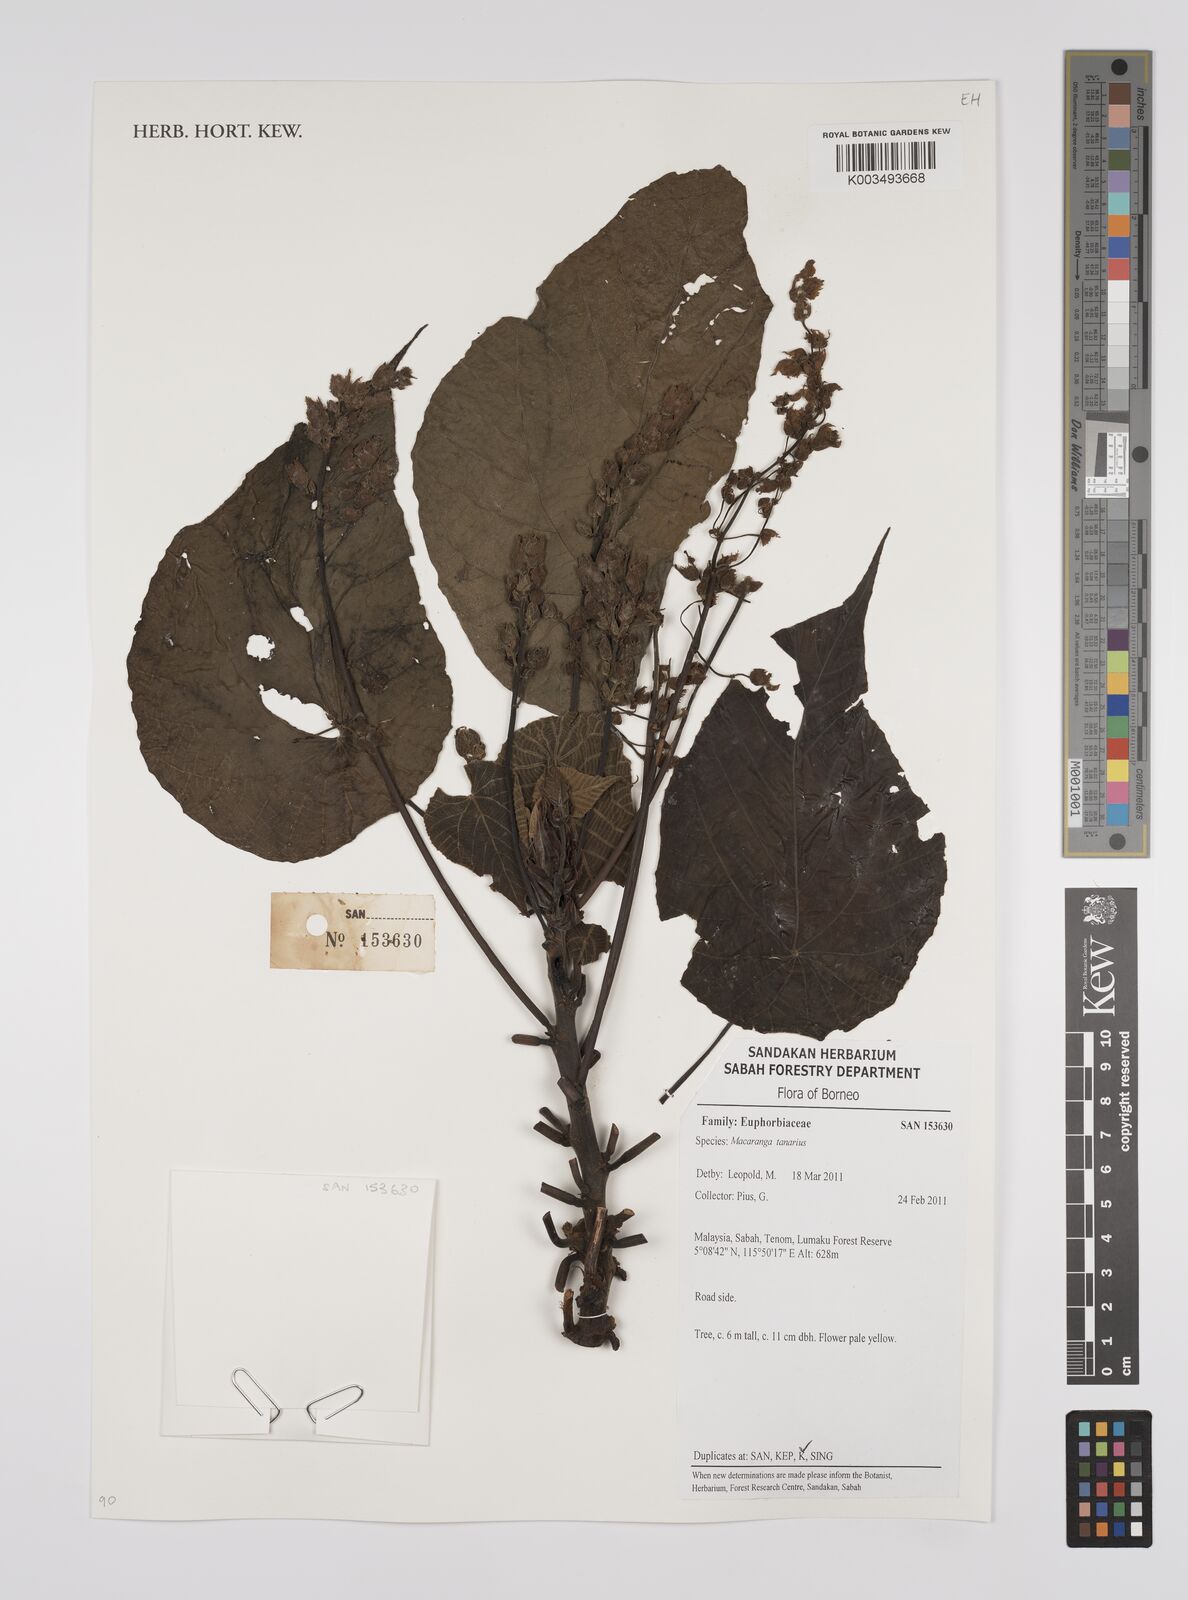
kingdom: Plantae
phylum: Tracheophyta
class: Magnoliopsida
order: Malpighiales
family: Euphorbiaceae
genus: Macaranga
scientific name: Macaranga tanarius
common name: Parasol leaf tree
